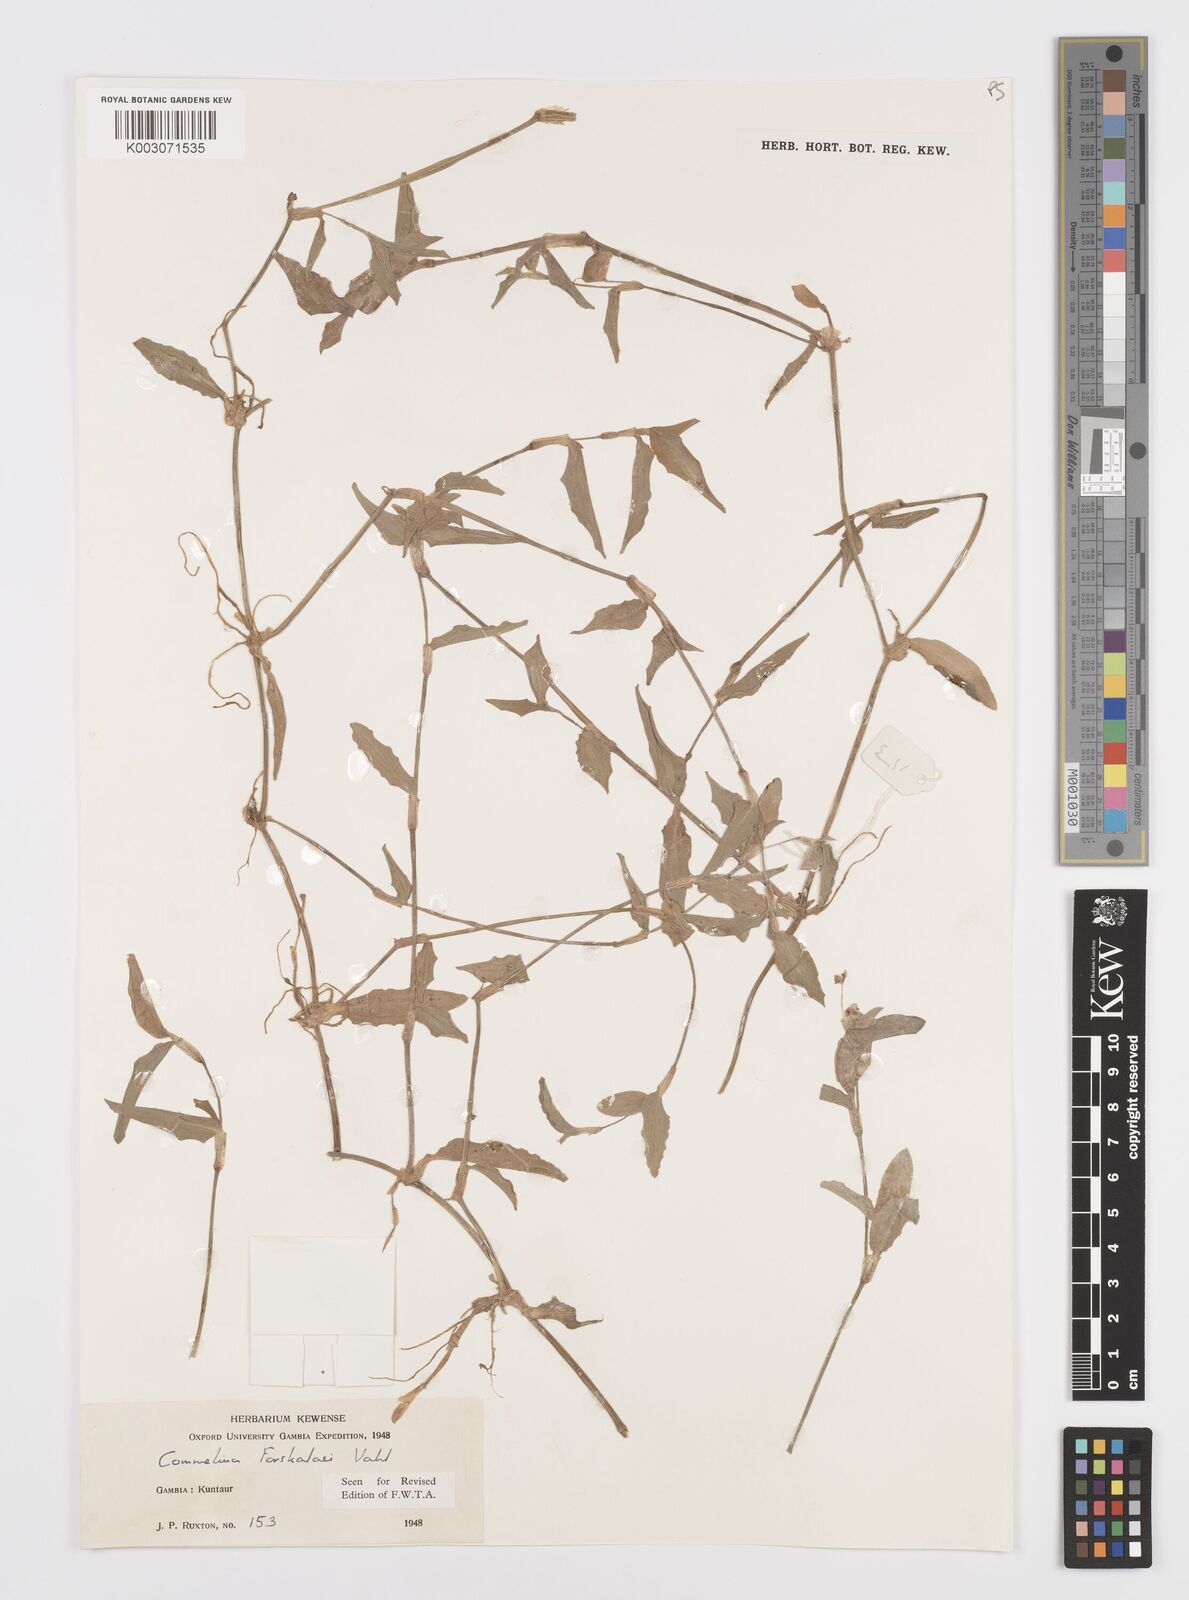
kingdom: Plantae
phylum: Tracheophyta
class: Liliopsida
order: Commelinales
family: Commelinaceae
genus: Commelina
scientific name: Commelina forskaolii
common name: Rat's ear
